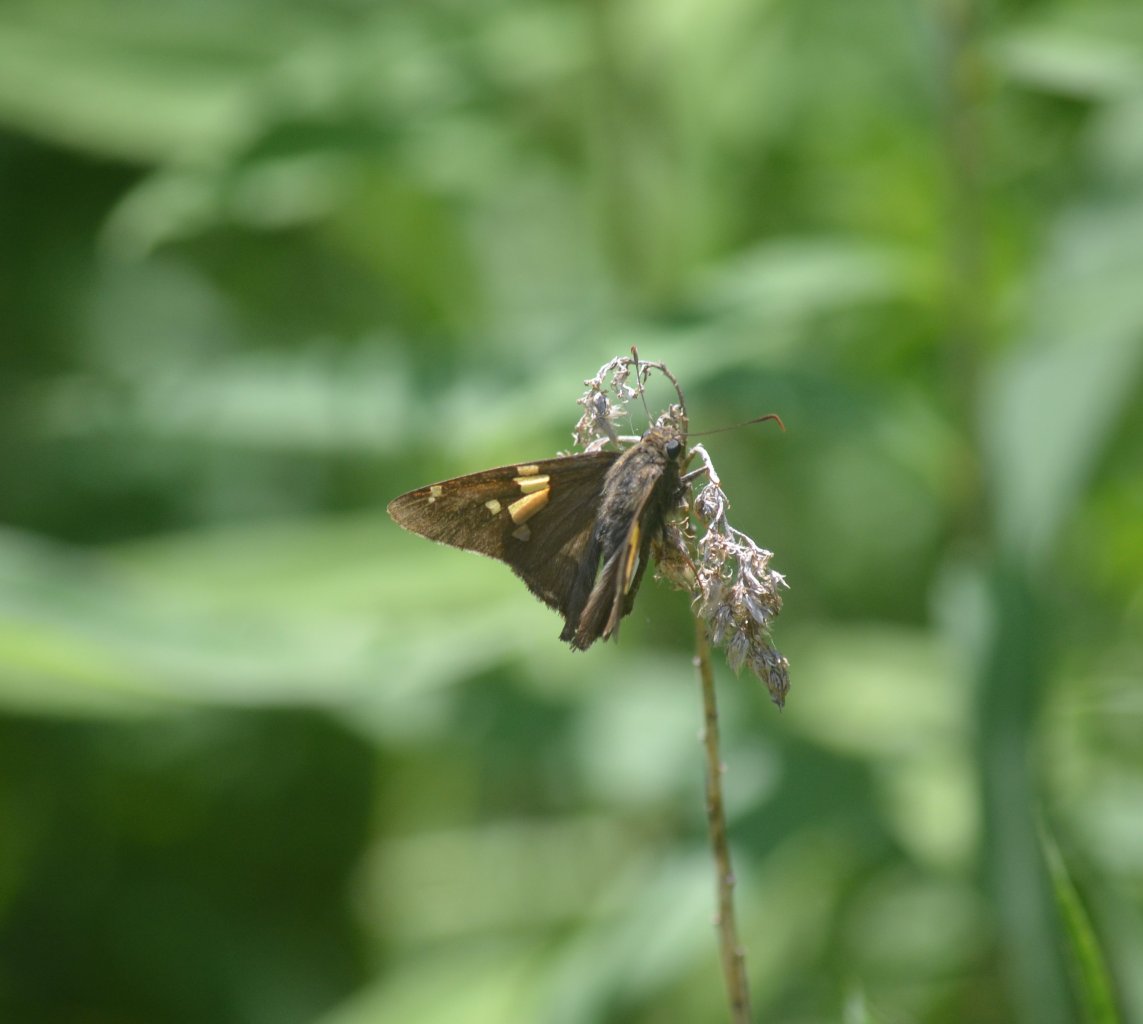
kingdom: Animalia
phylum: Arthropoda
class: Insecta
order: Lepidoptera
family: Hesperiidae
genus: Epargyreus
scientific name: Epargyreus clarus
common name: Silver-spotted Skipper
